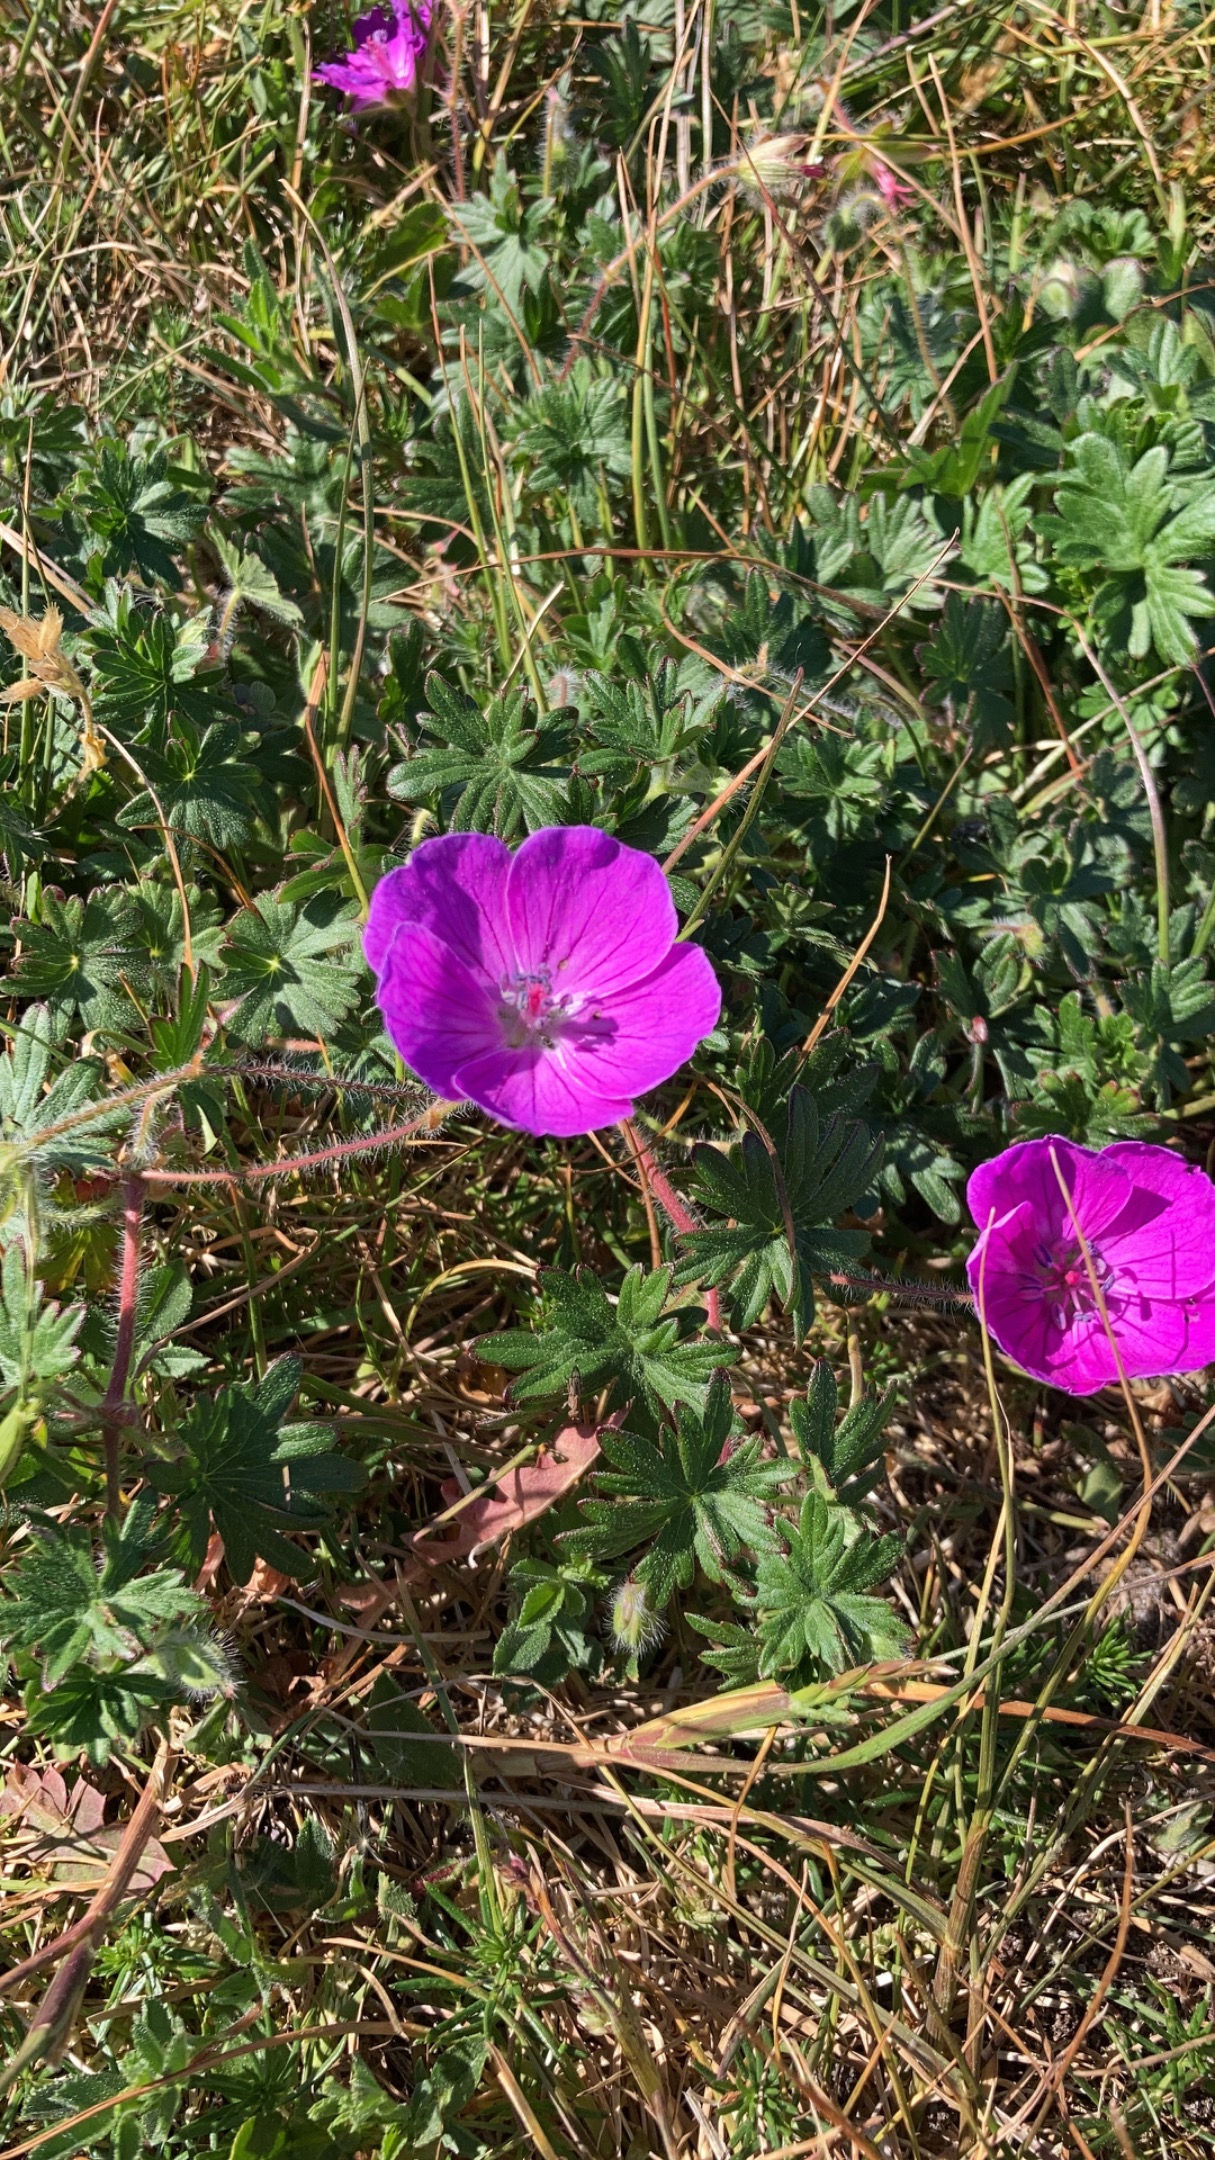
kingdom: Plantae
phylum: Tracheophyta
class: Magnoliopsida
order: Geraniales
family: Geraniaceae
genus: Geranium
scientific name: Geranium sanguineum
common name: Blodrød storkenæb
